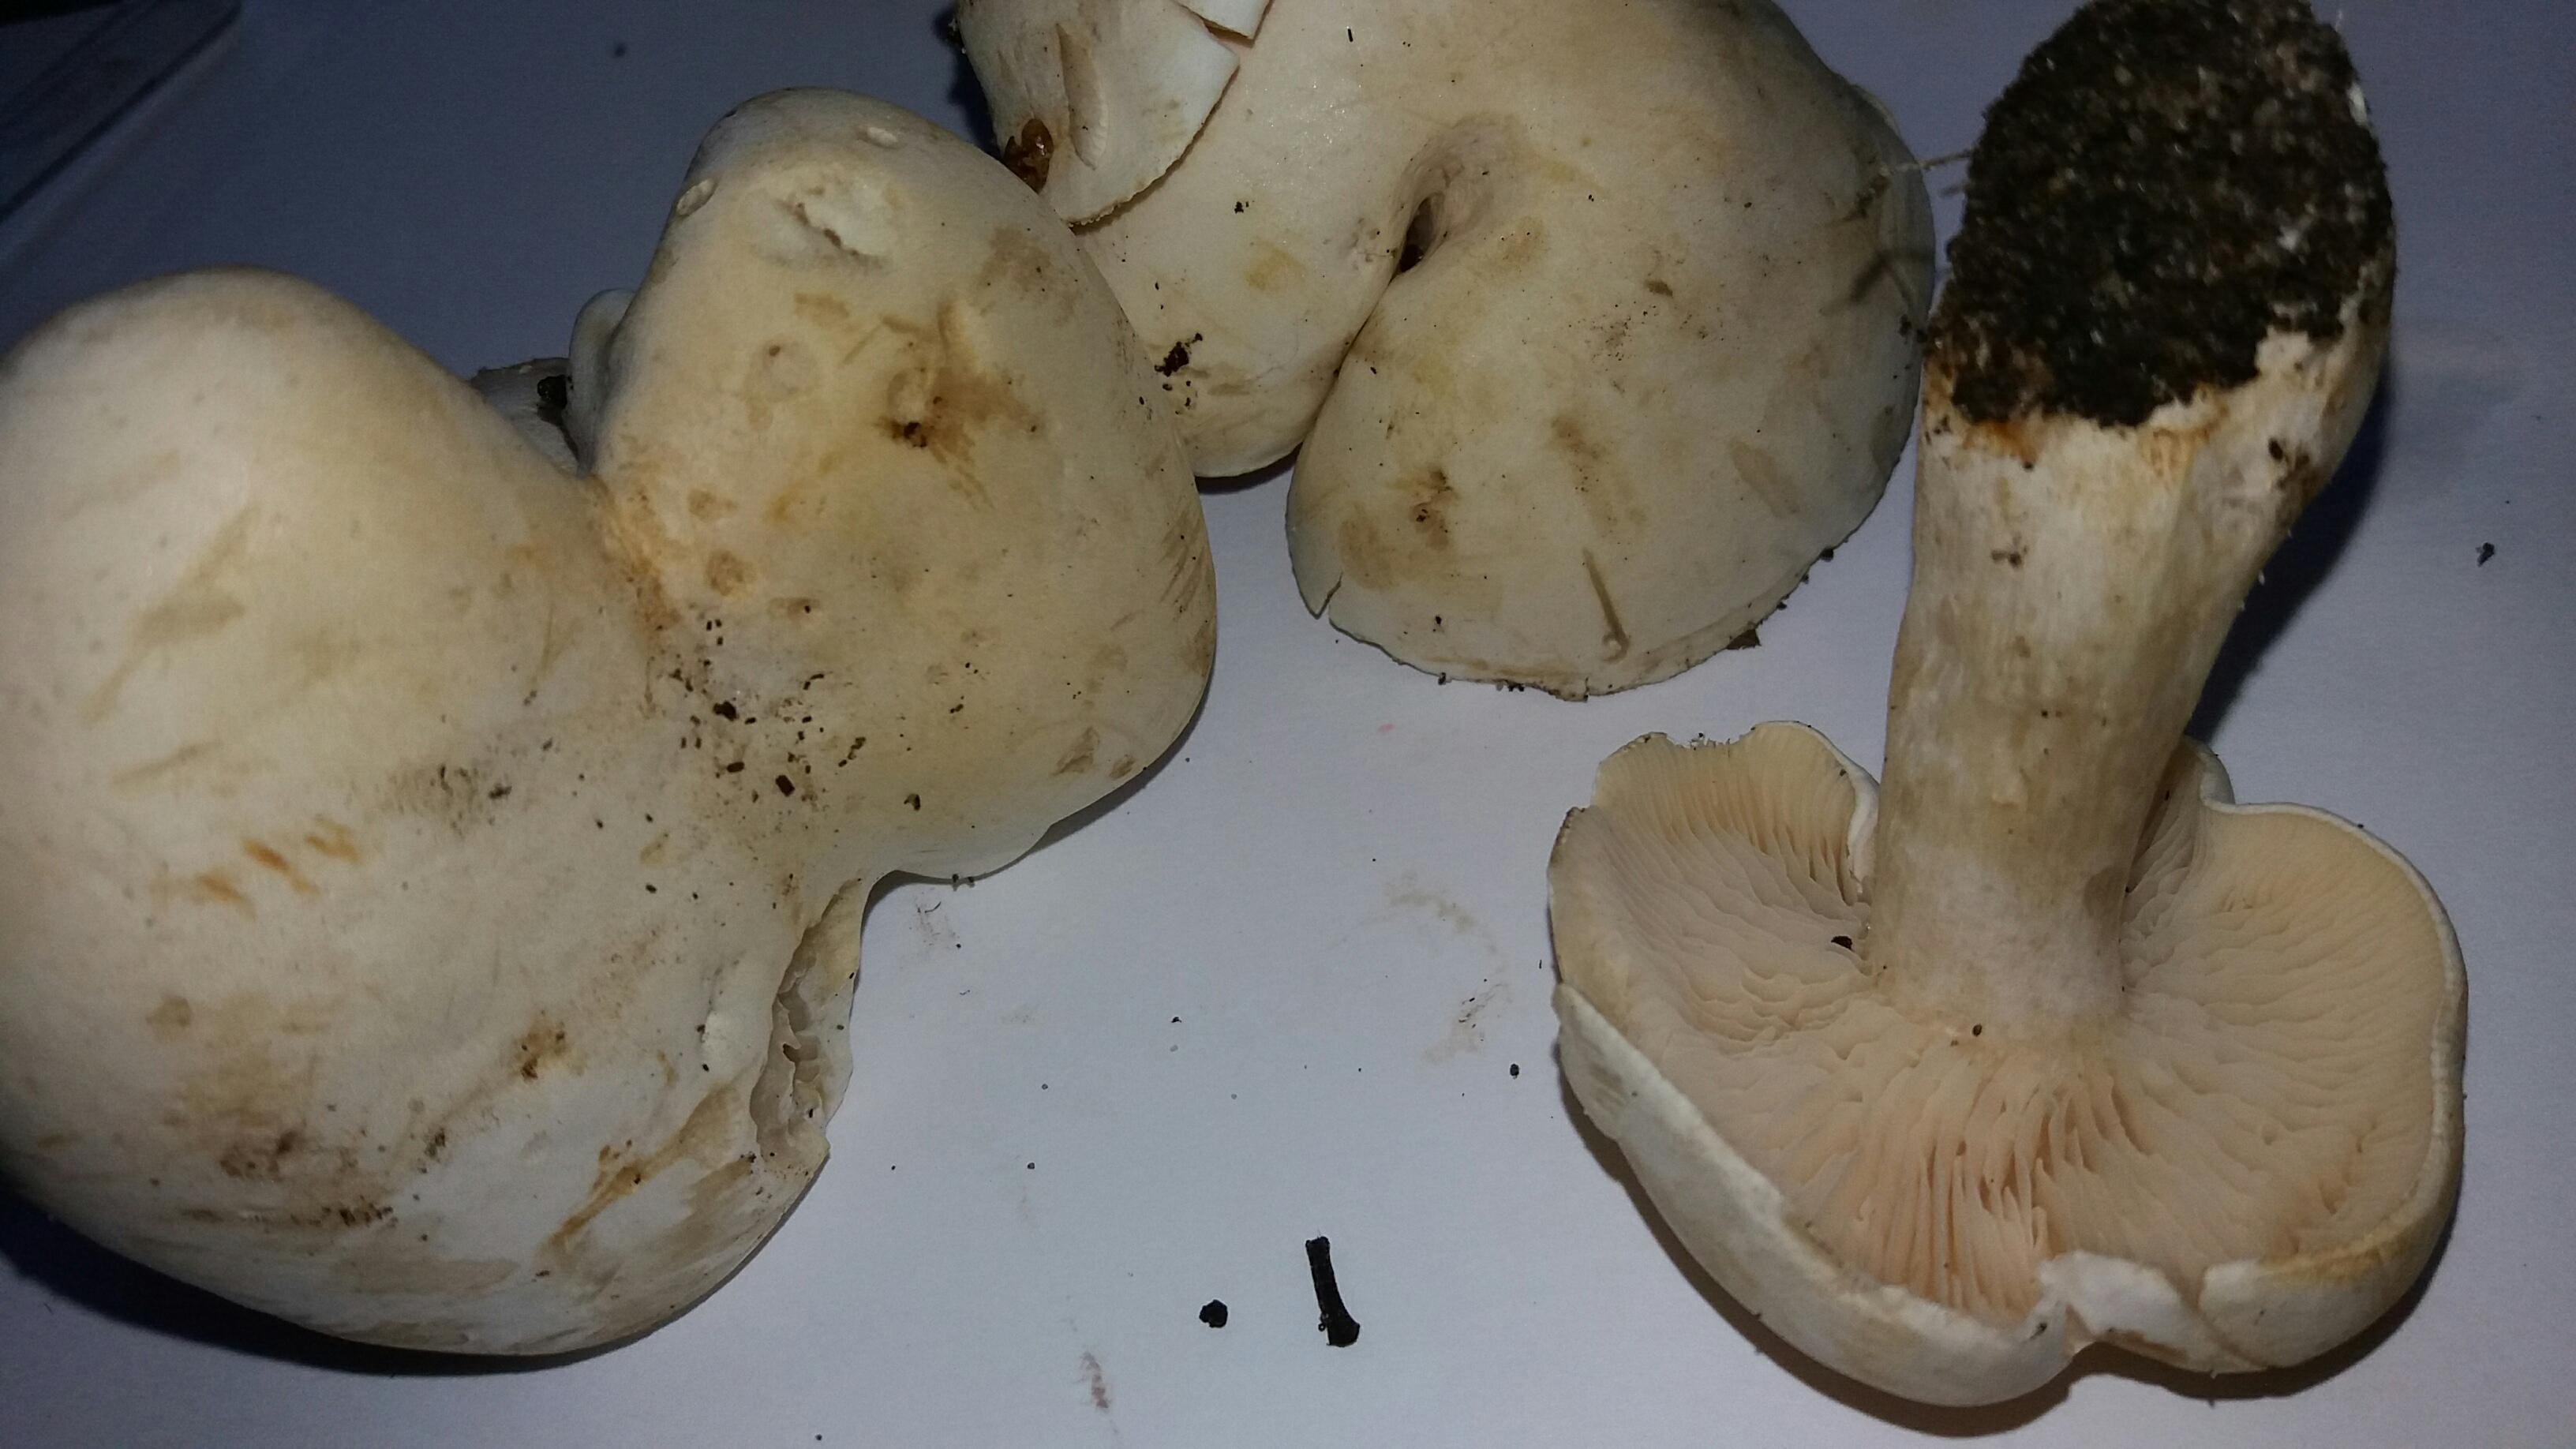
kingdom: Fungi
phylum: Basidiomycota
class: Agaricomycetes
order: Agaricales
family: Tricholomataceae
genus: Tricholoma
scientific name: Tricholoma stiparophyllum
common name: hvid ridderhat
